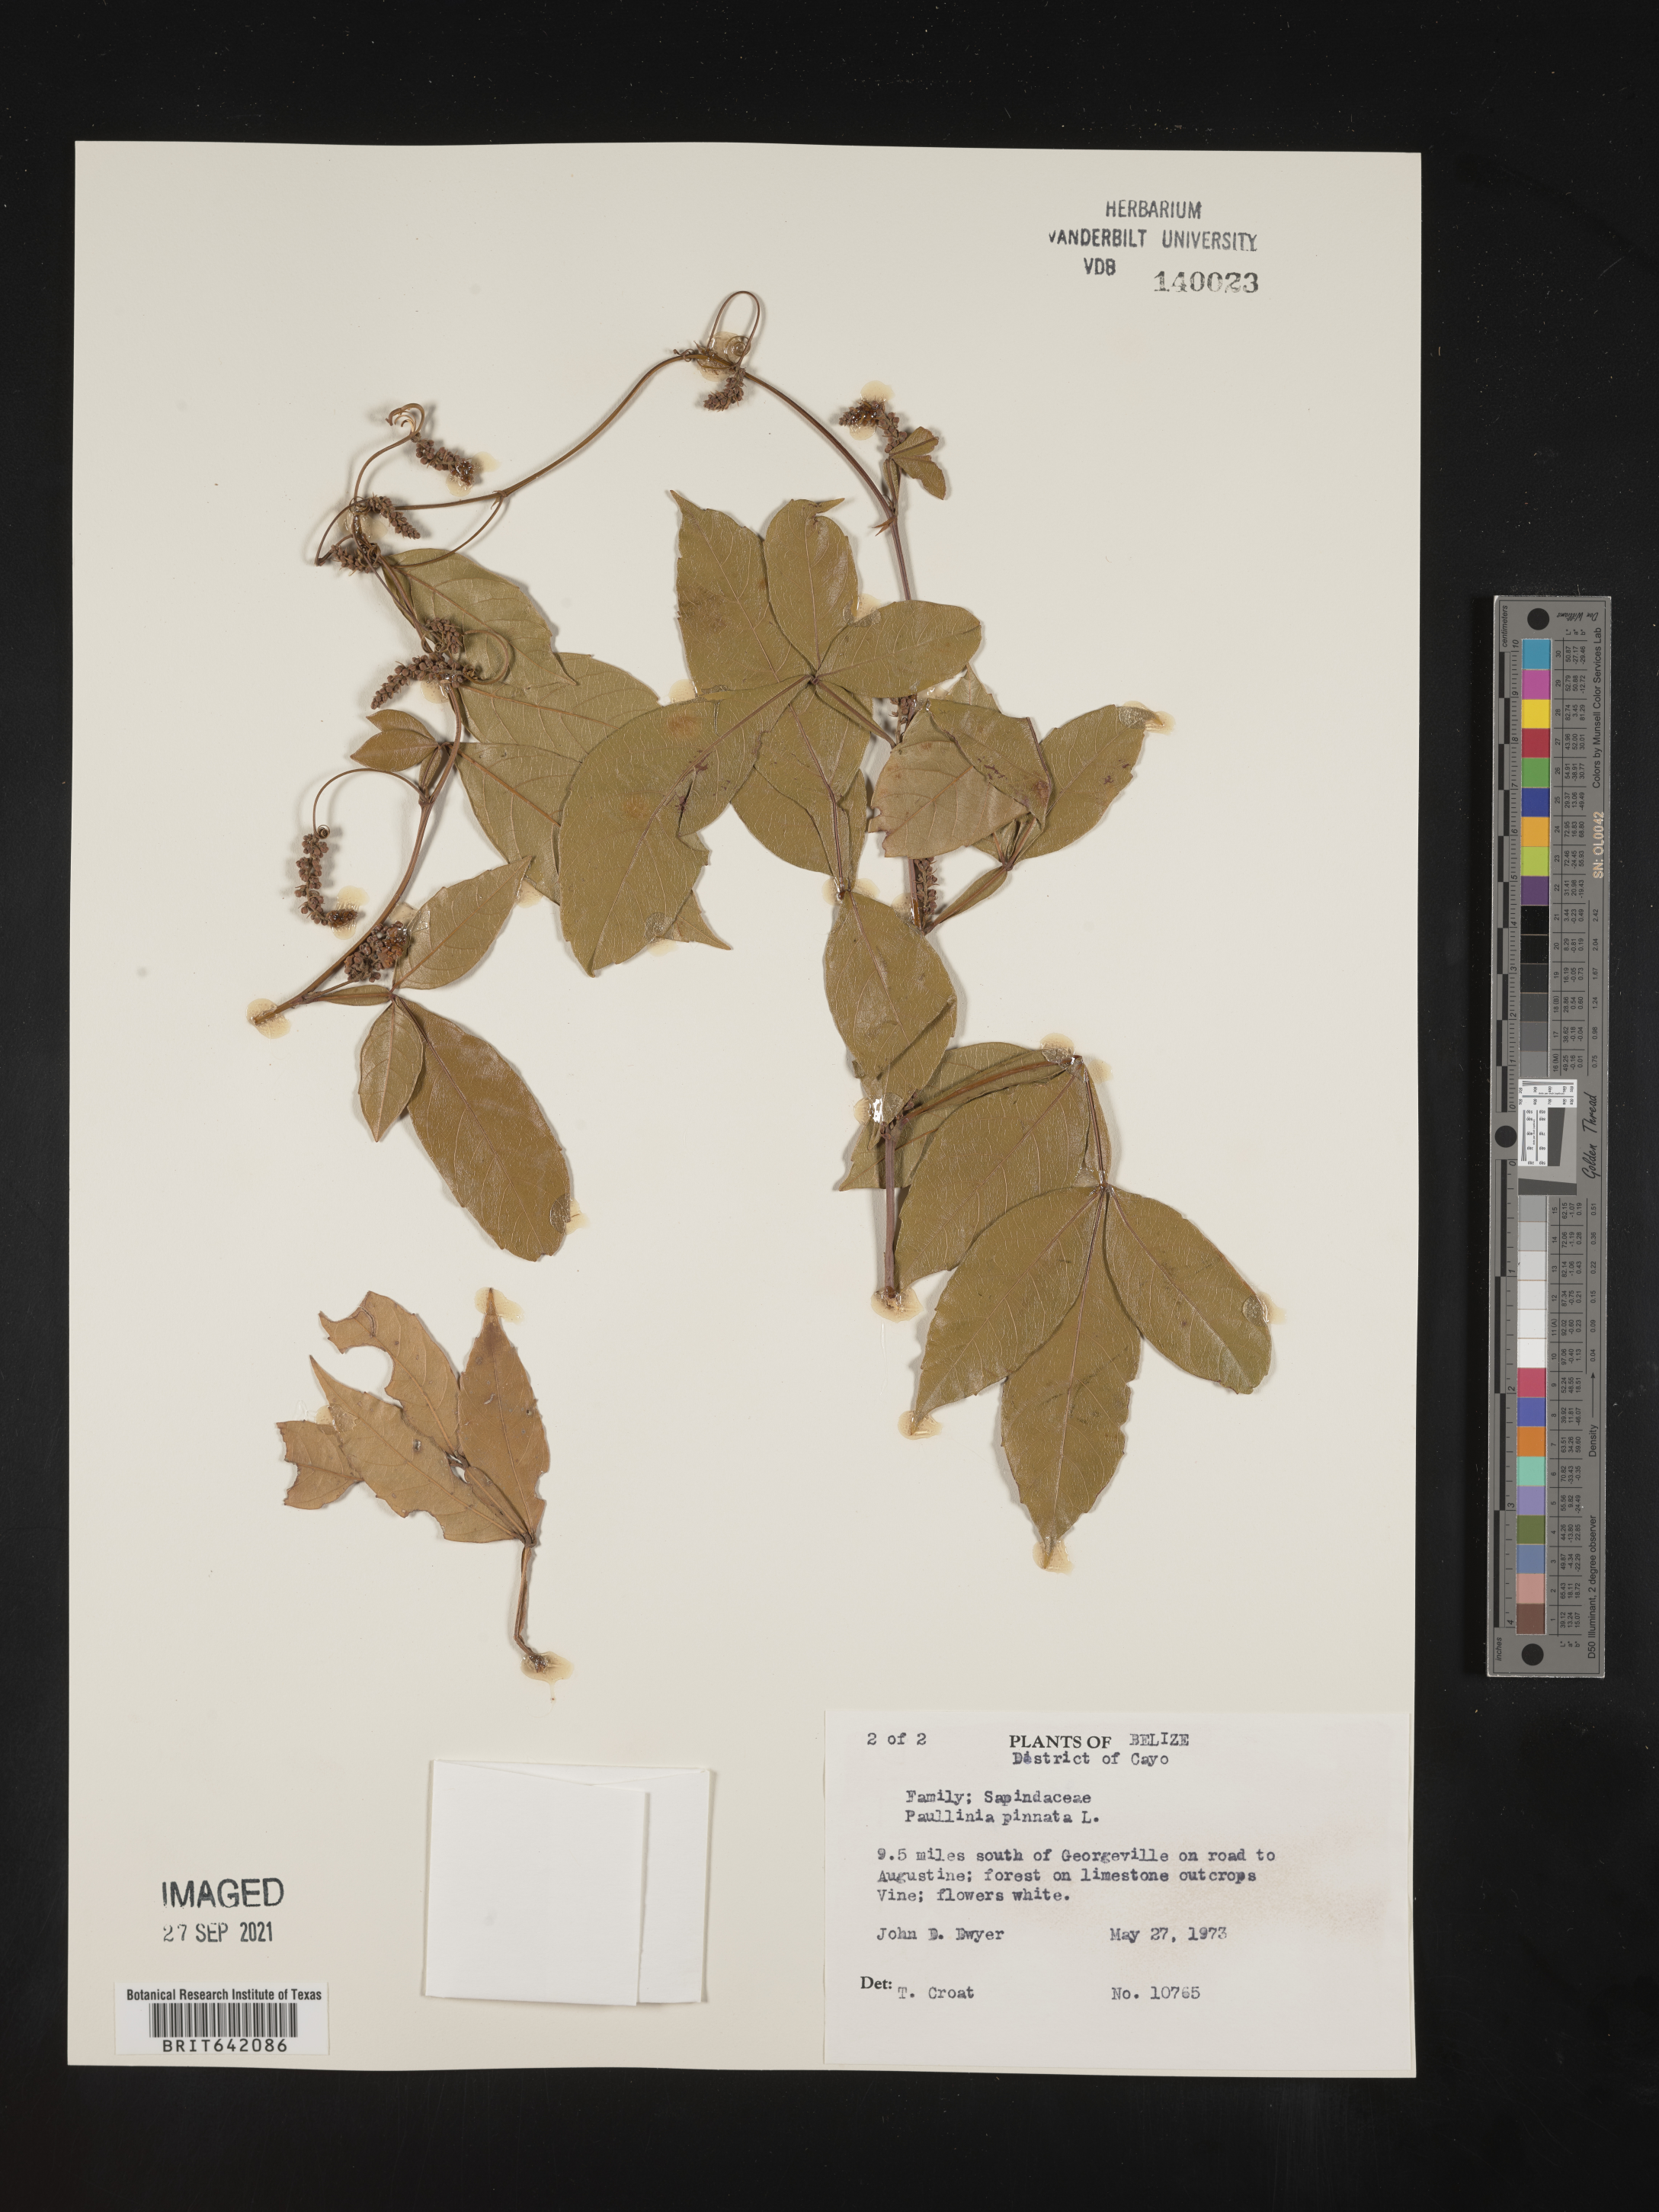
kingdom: Plantae
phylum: Tracheophyta
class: Magnoliopsida
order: Sapindales
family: Sapindaceae
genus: Paullinia
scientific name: Paullinia
